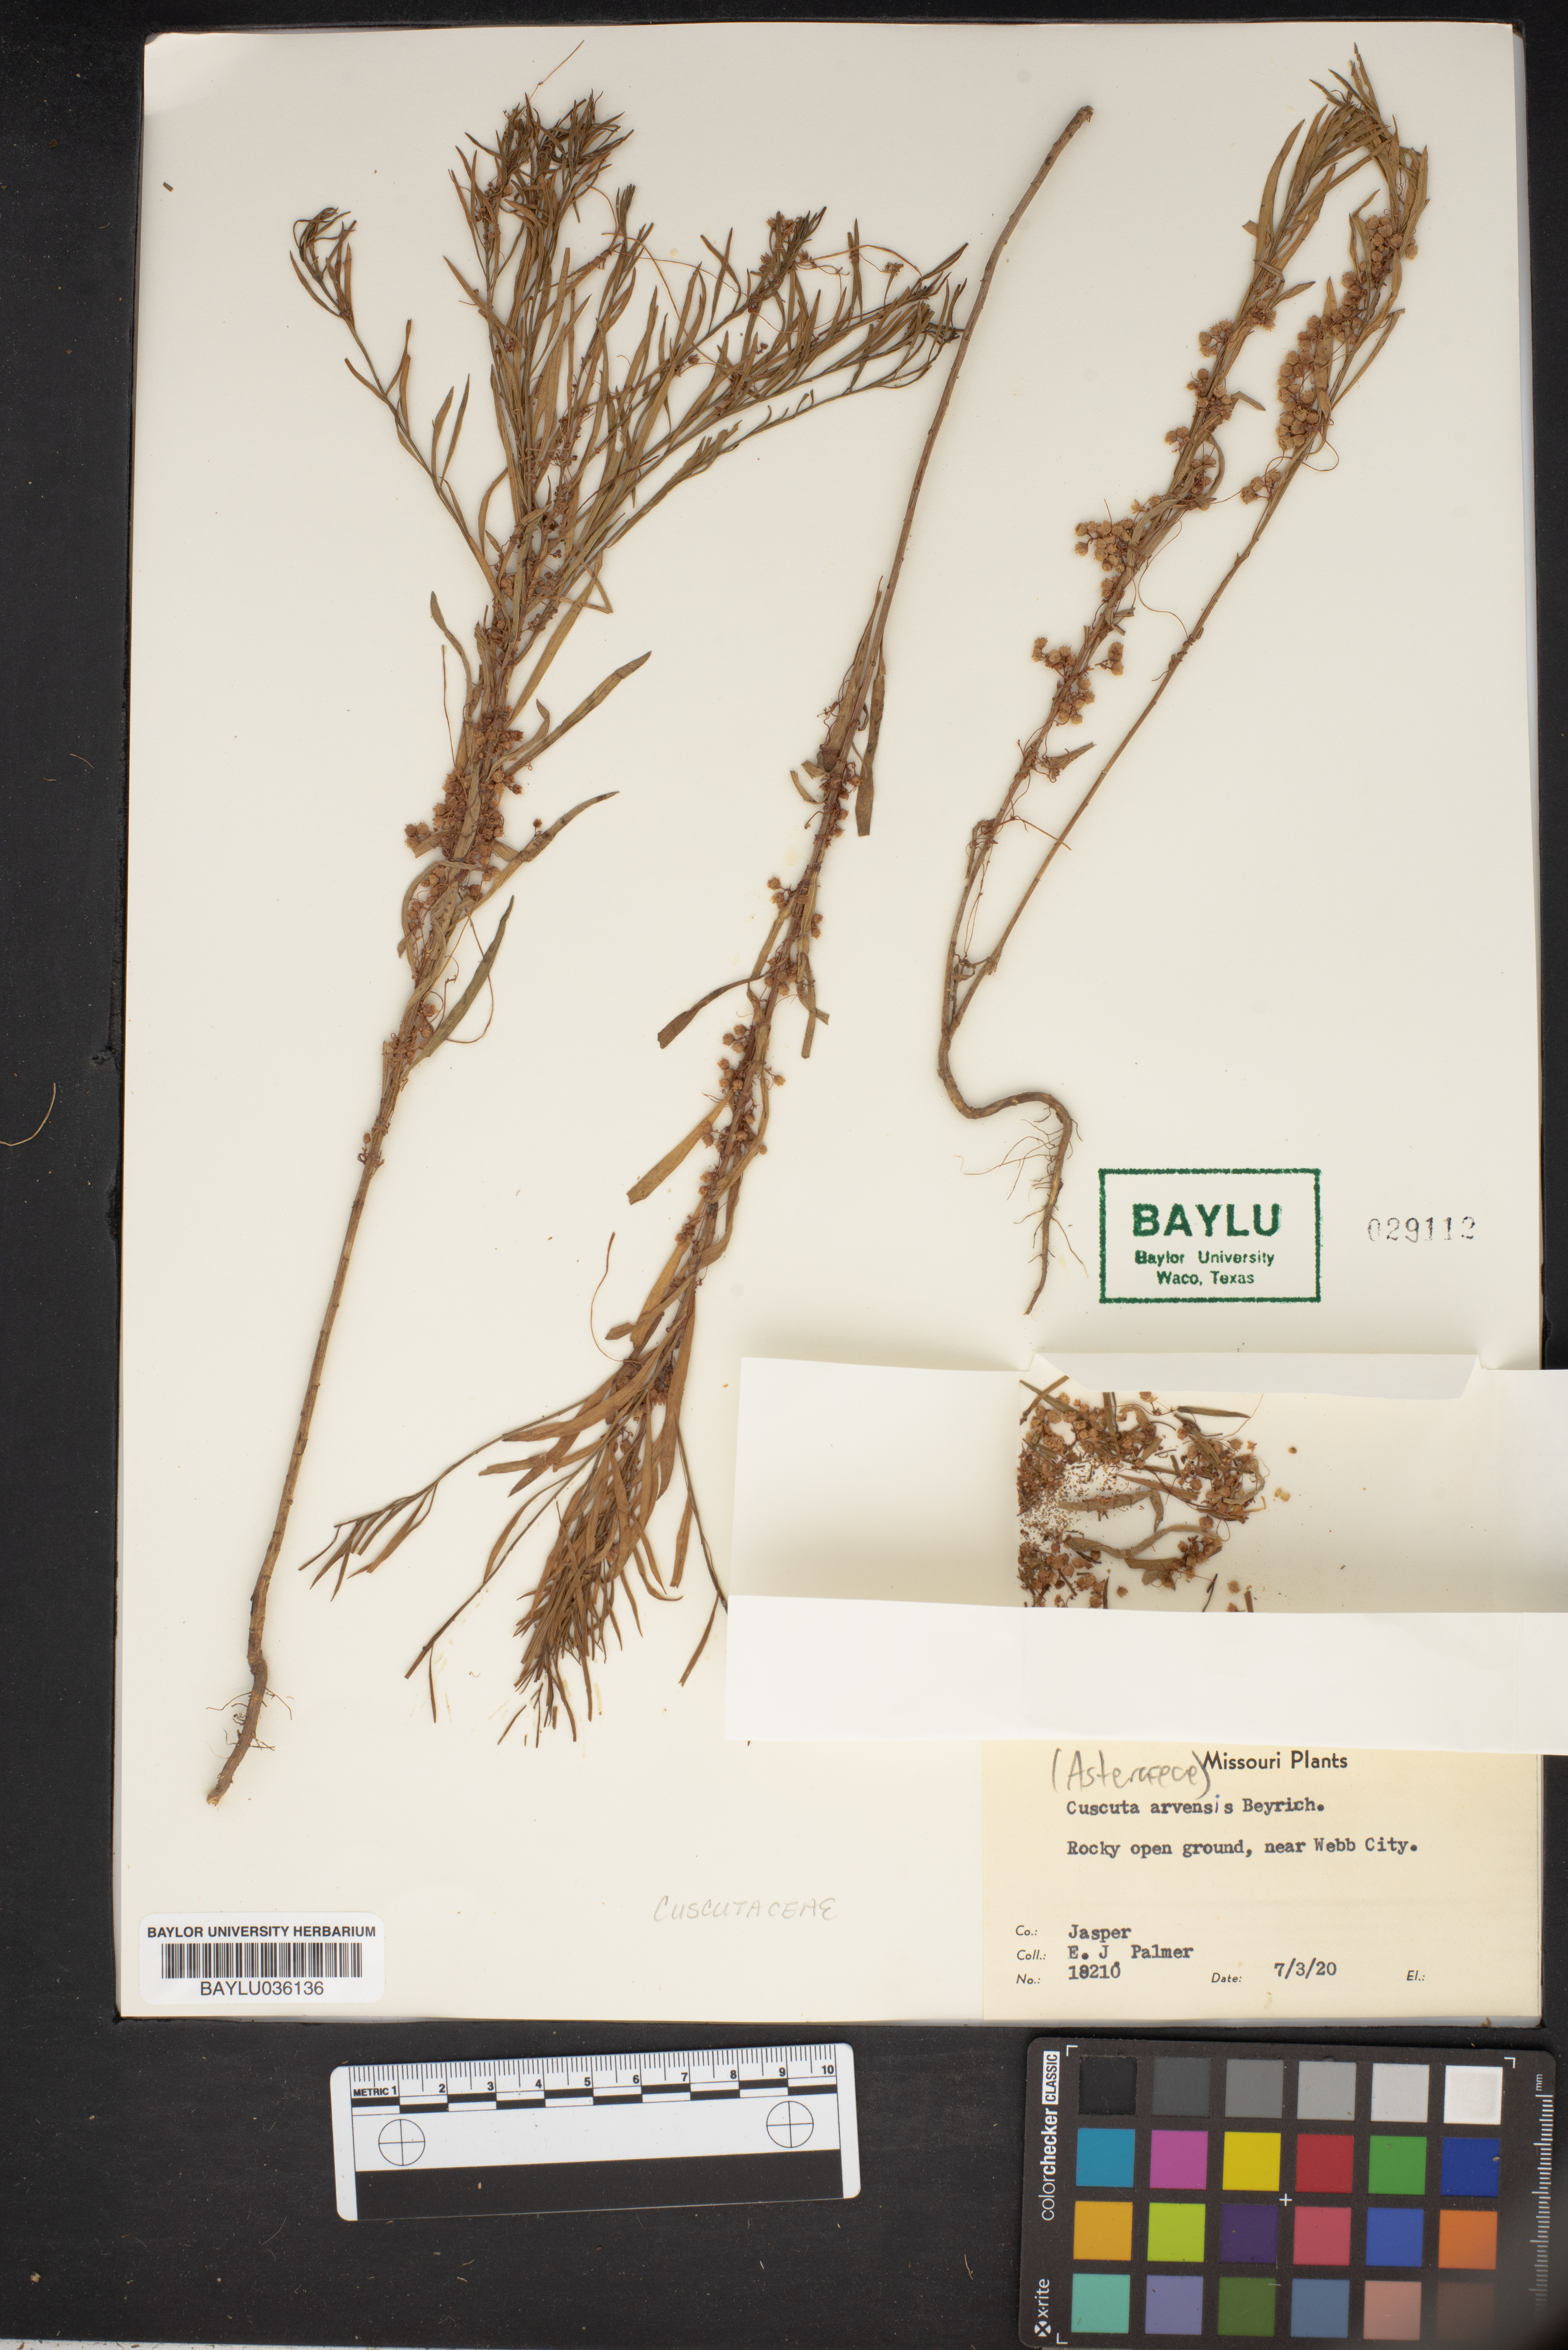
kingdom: Plantae
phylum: Tracheophyta
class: Magnoliopsida
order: Solanales
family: Convolvulaceae
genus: Cuscuta
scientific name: Cuscuta campestris
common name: Yellow dodder
